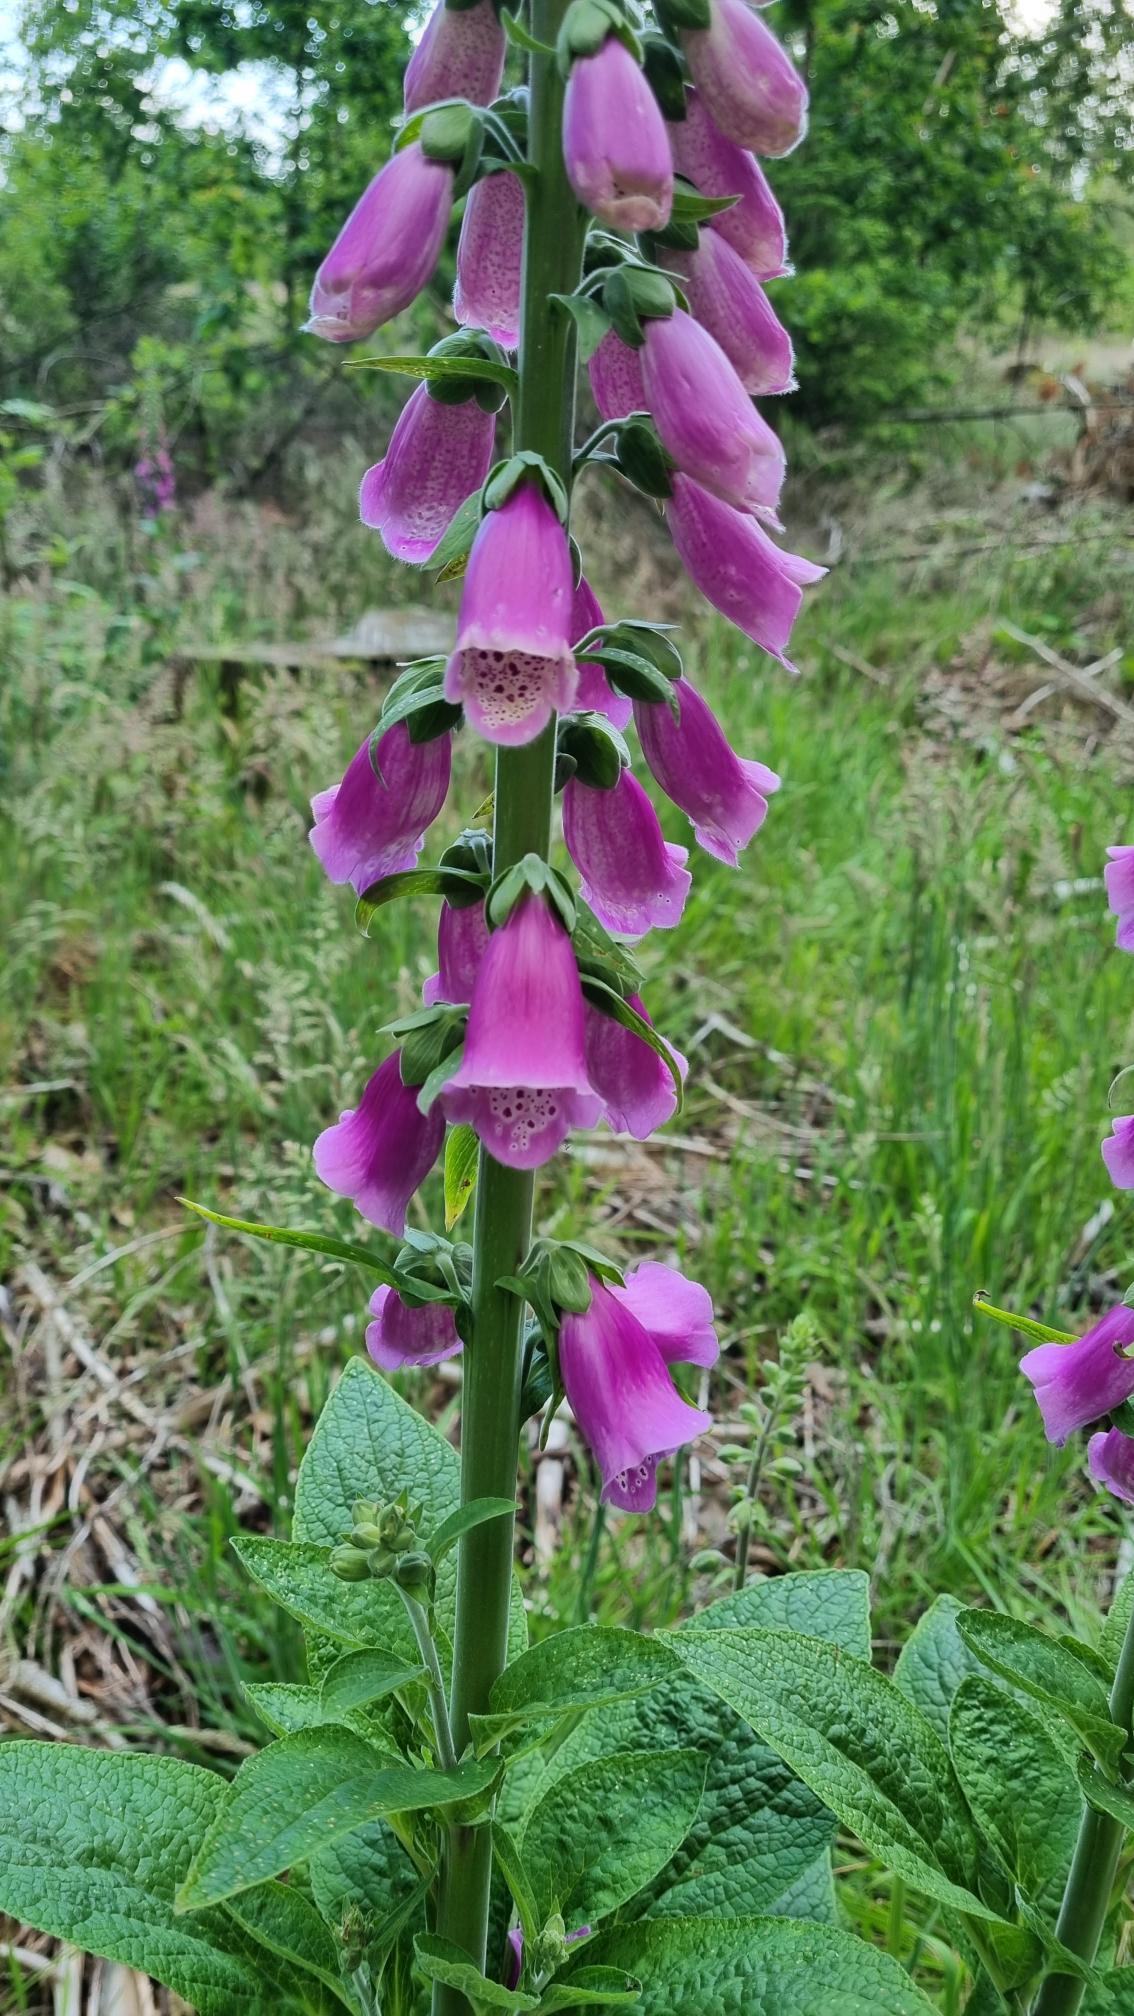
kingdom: Plantae
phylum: Tracheophyta
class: Magnoliopsida
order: Lamiales
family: Plantaginaceae
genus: Digitalis
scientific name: Digitalis purpurea
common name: Almindelig fingerbøl
